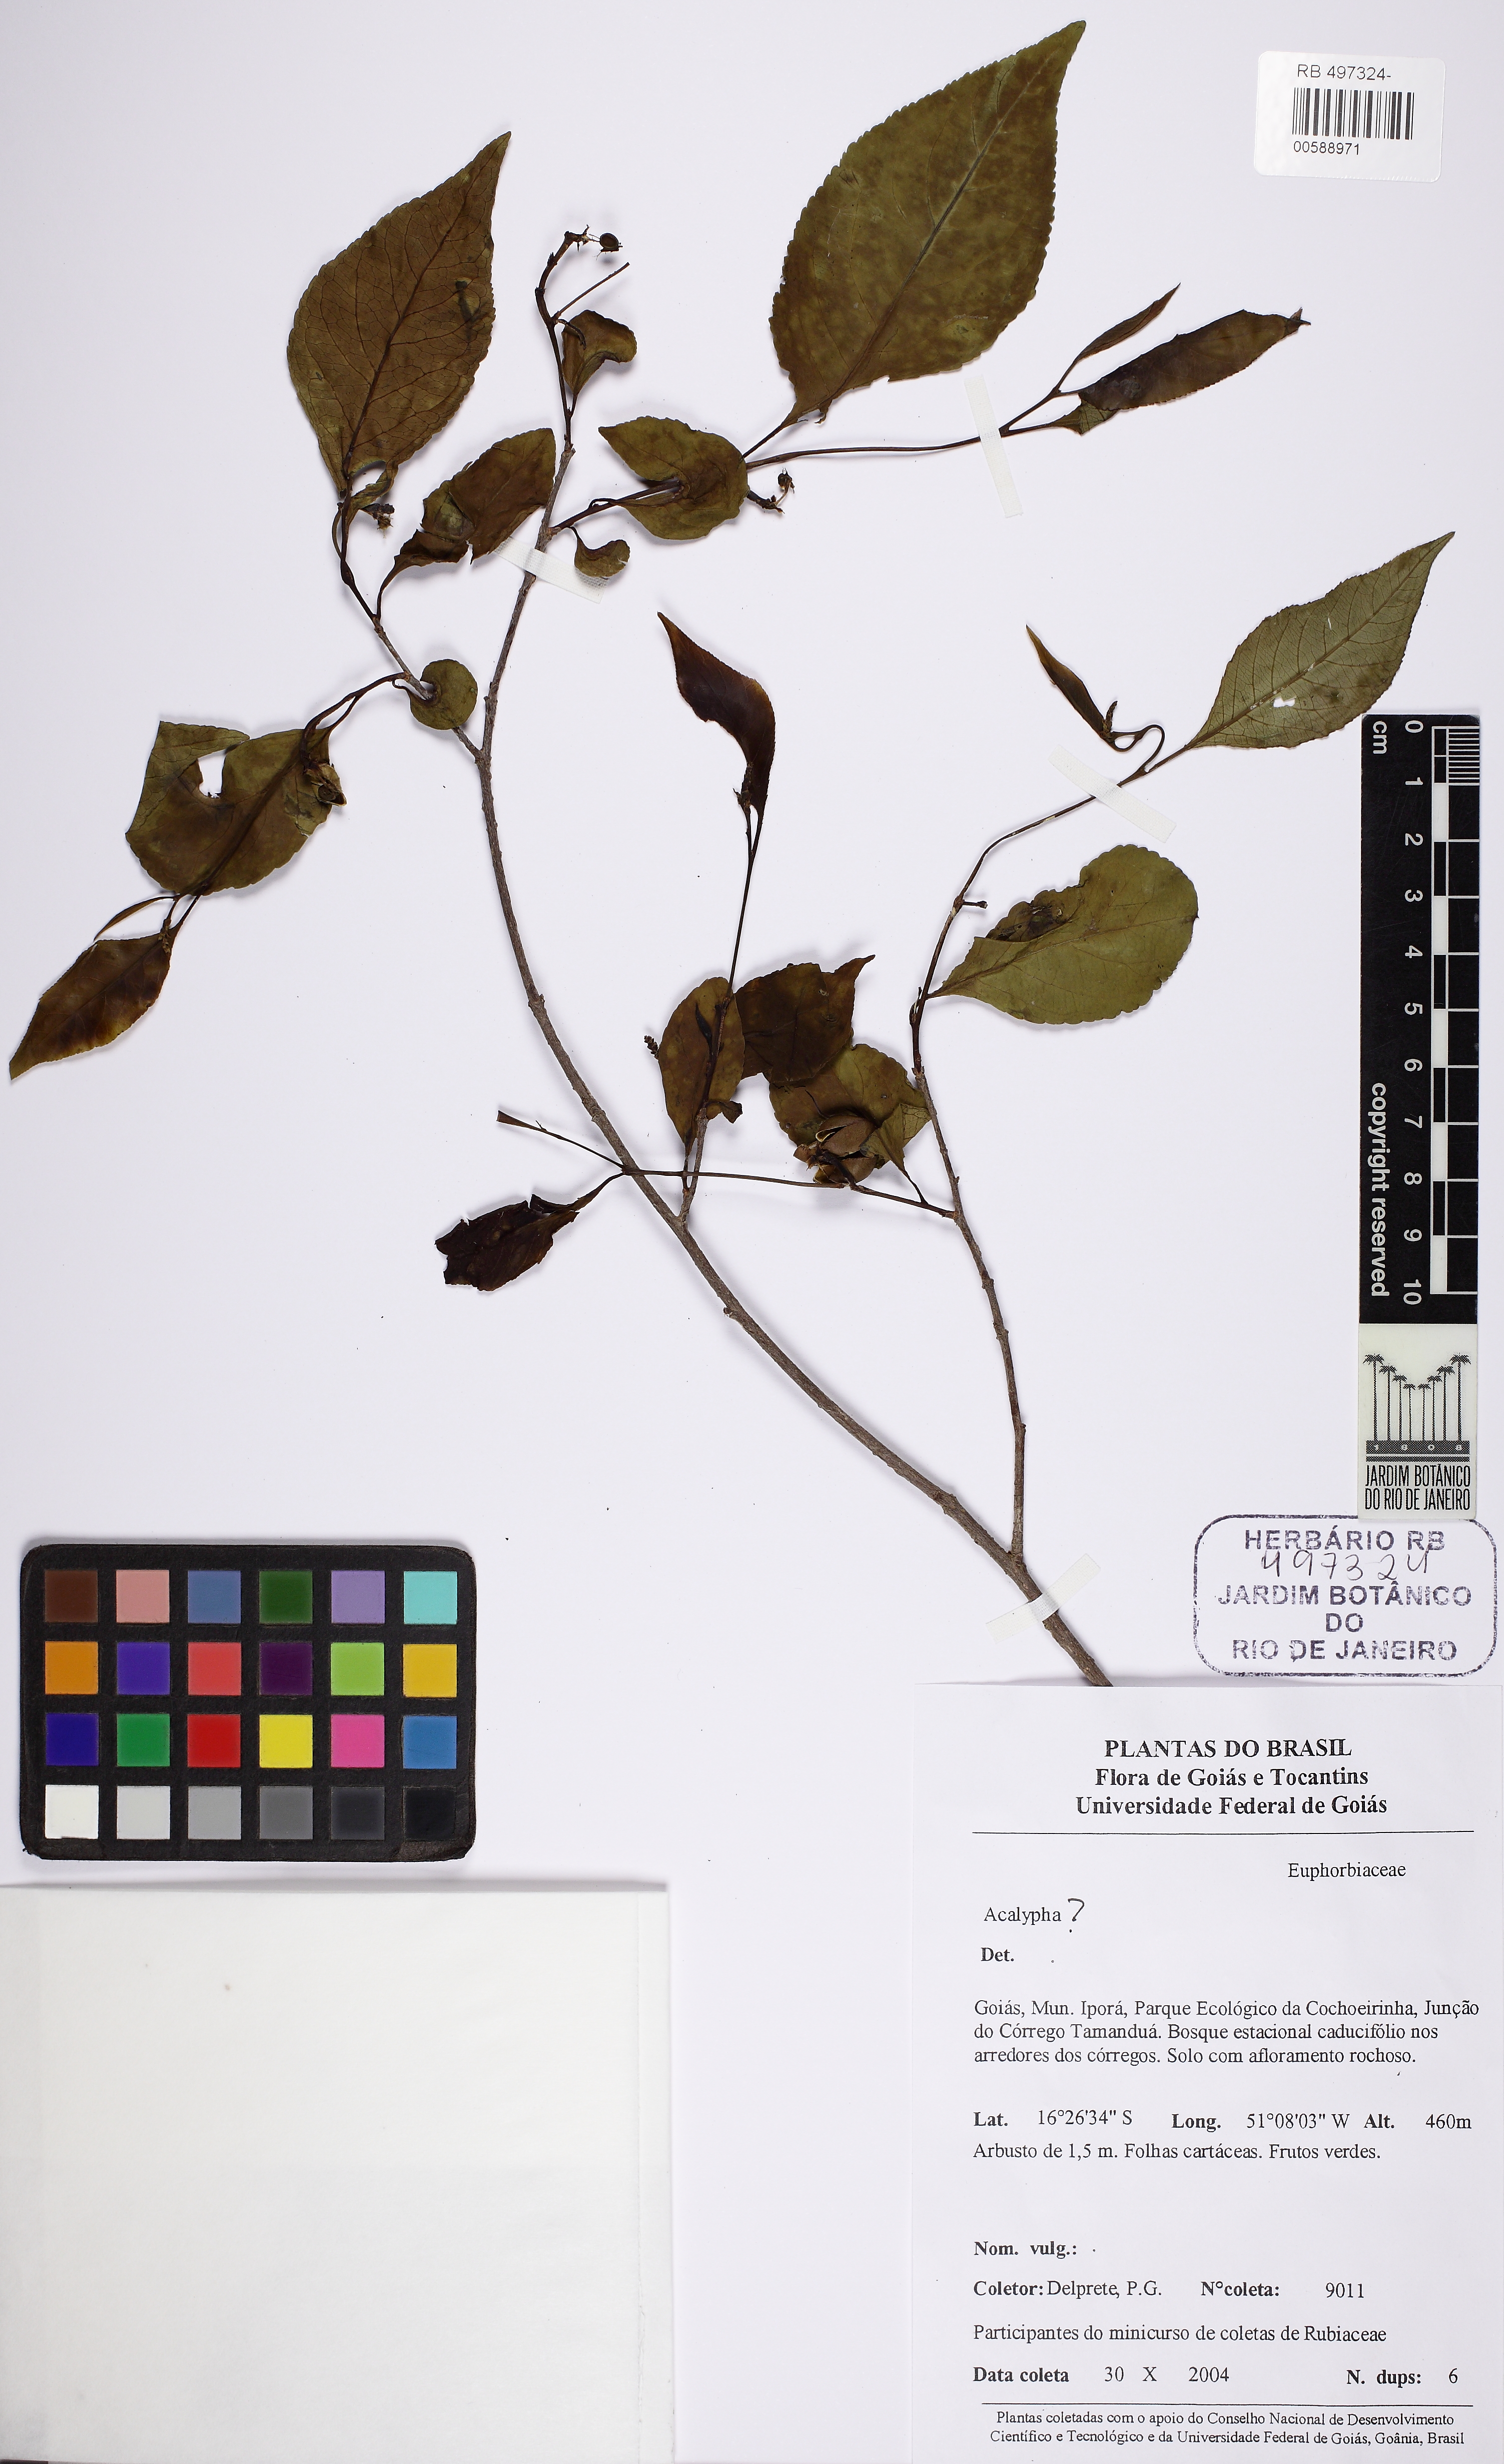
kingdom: Plantae
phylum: Tracheophyta
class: Magnoliopsida
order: Malpighiales
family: Euphorbiaceae
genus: Acalypha
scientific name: Acalypha
